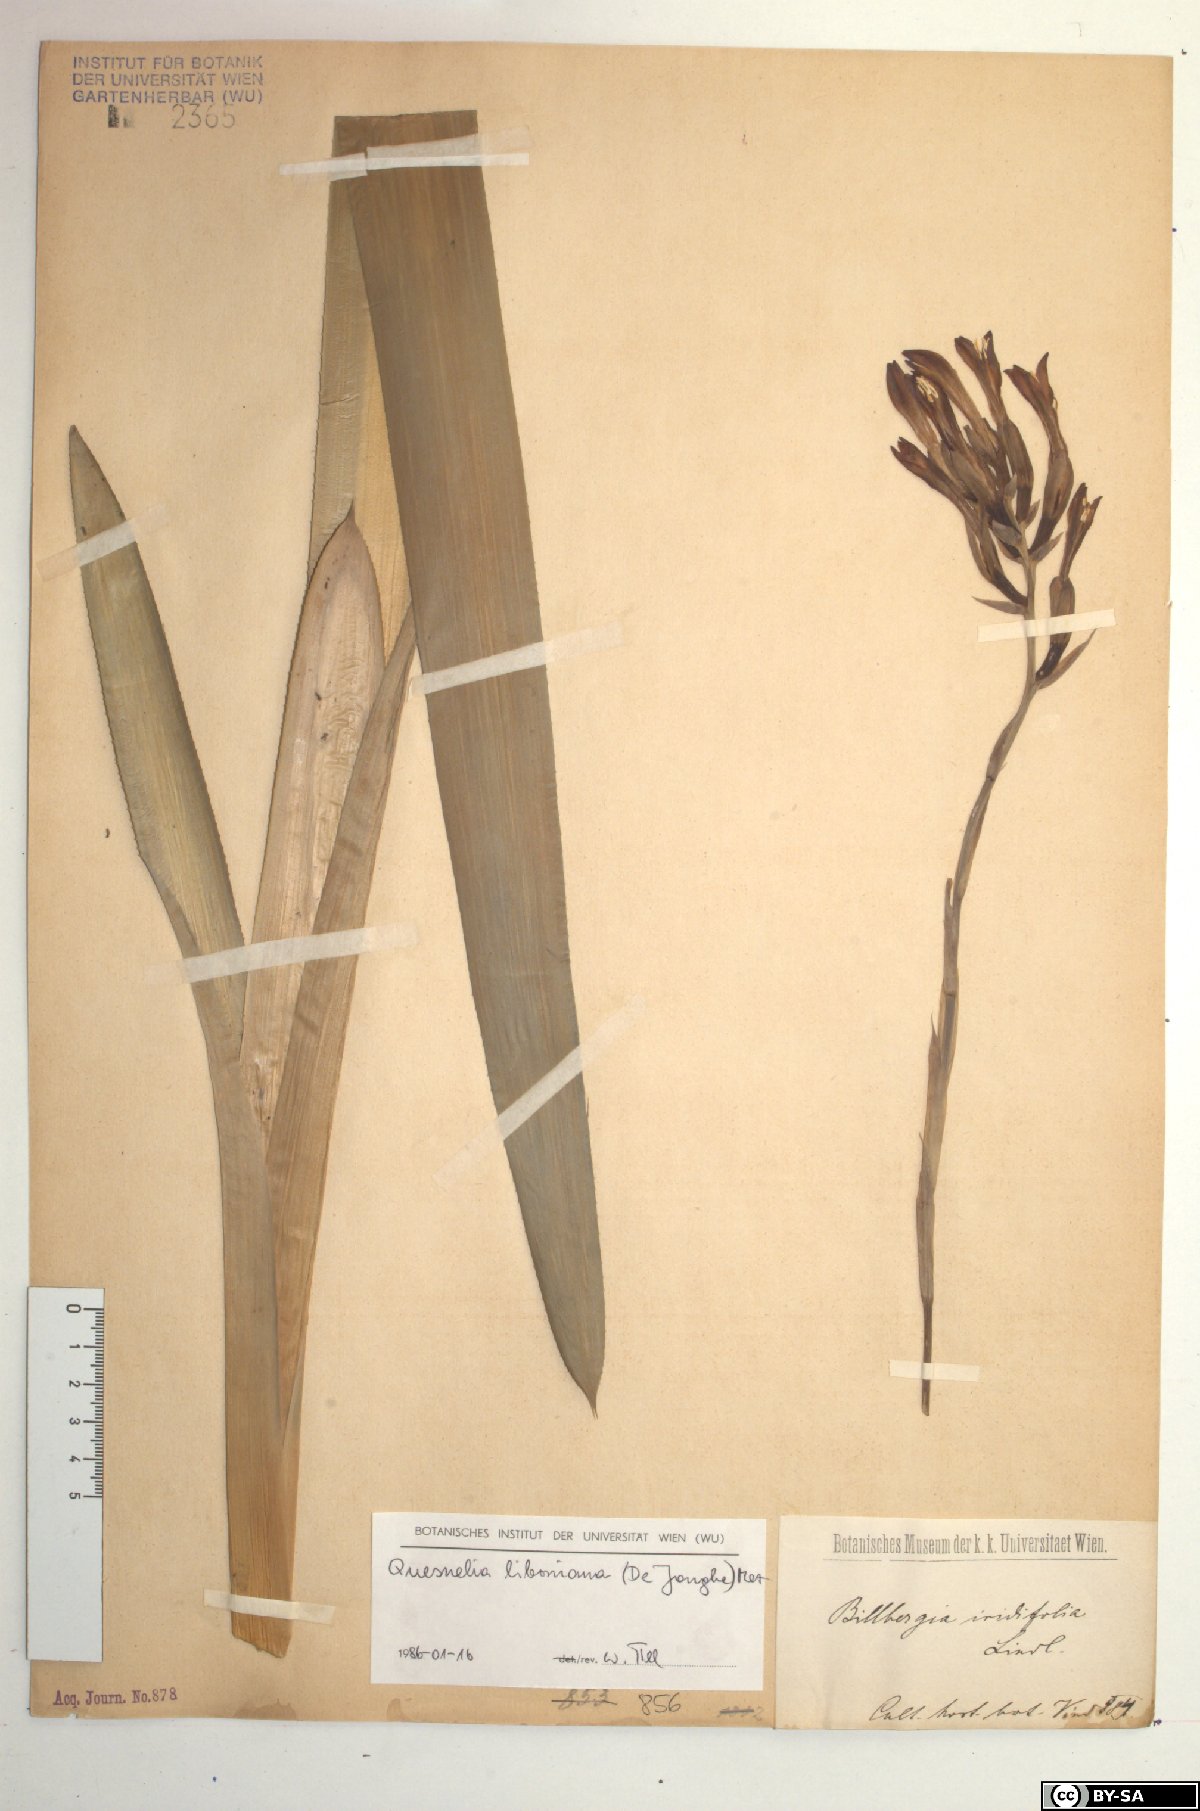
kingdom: Plantae
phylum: Tracheophyta
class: Liliopsida
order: Poales
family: Bromeliaceae
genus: Quesnelia
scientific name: Quesnelia liboniana
